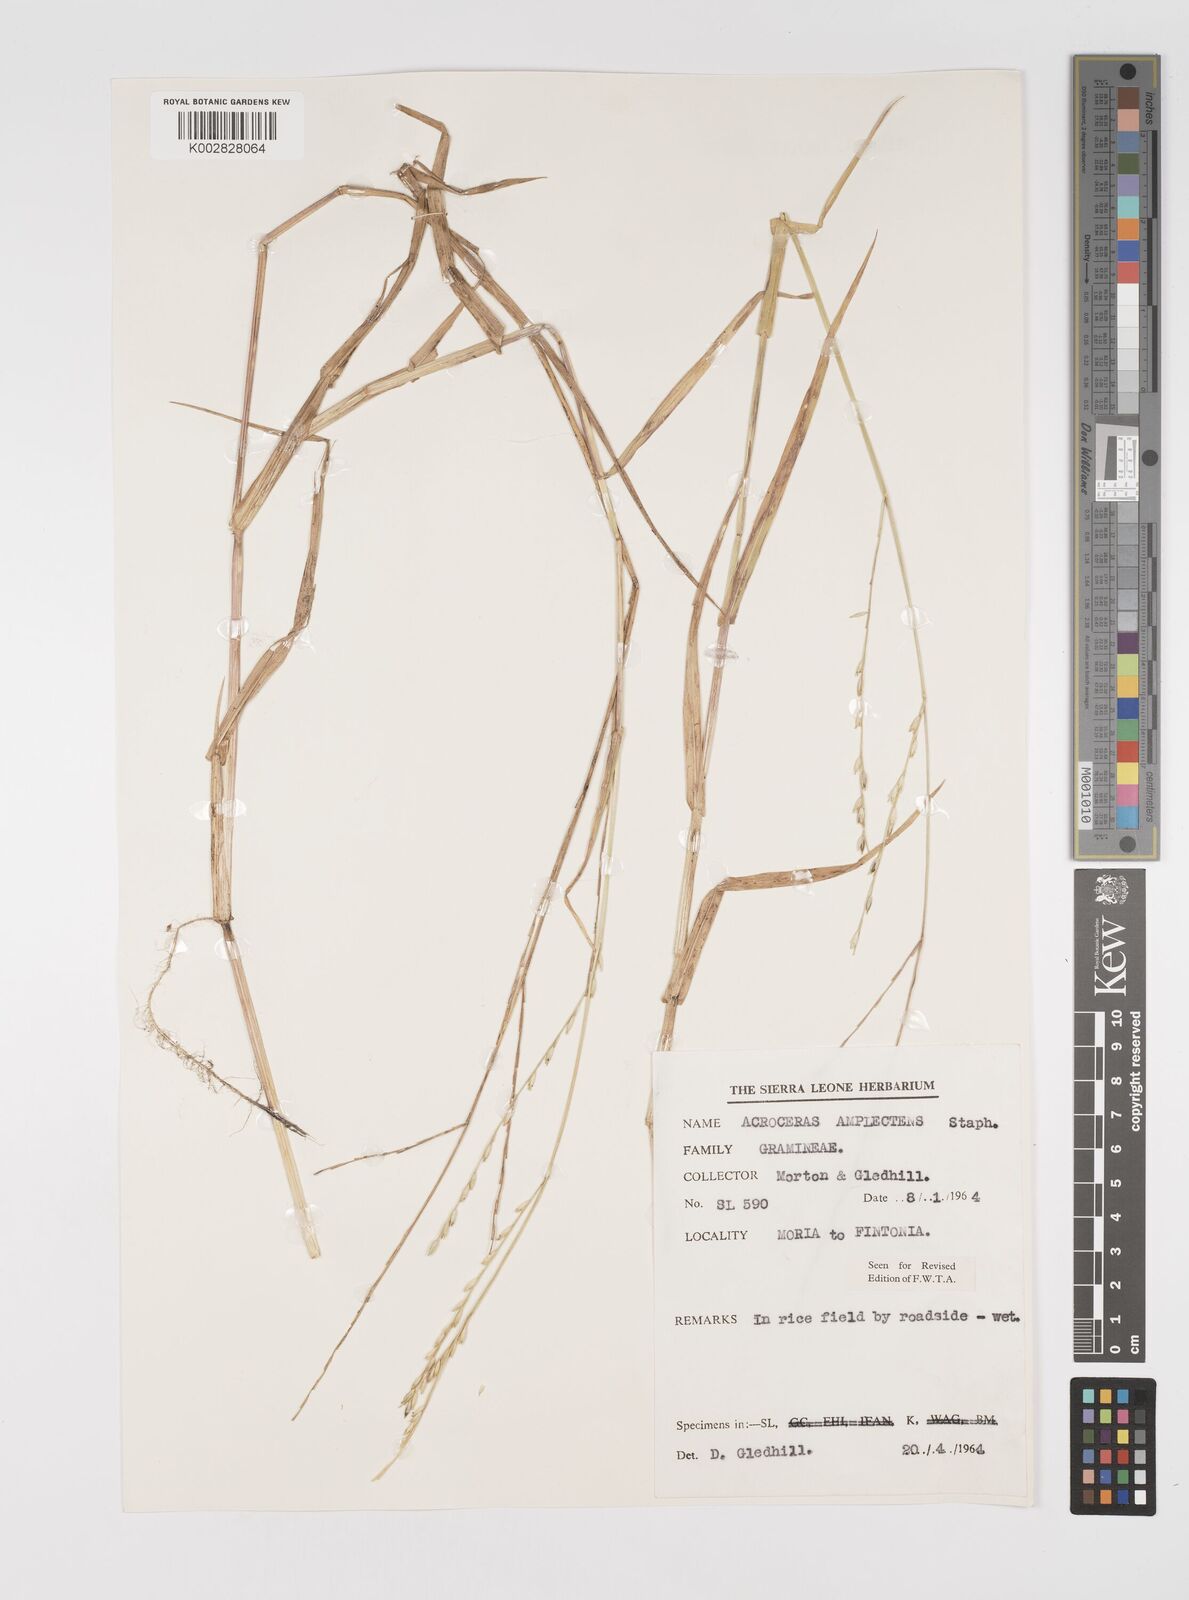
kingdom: Plantae
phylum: Tracheophyta
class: Liliopsida
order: Poales
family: Poaceae
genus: Acroceras
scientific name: Acroceras amplectens
